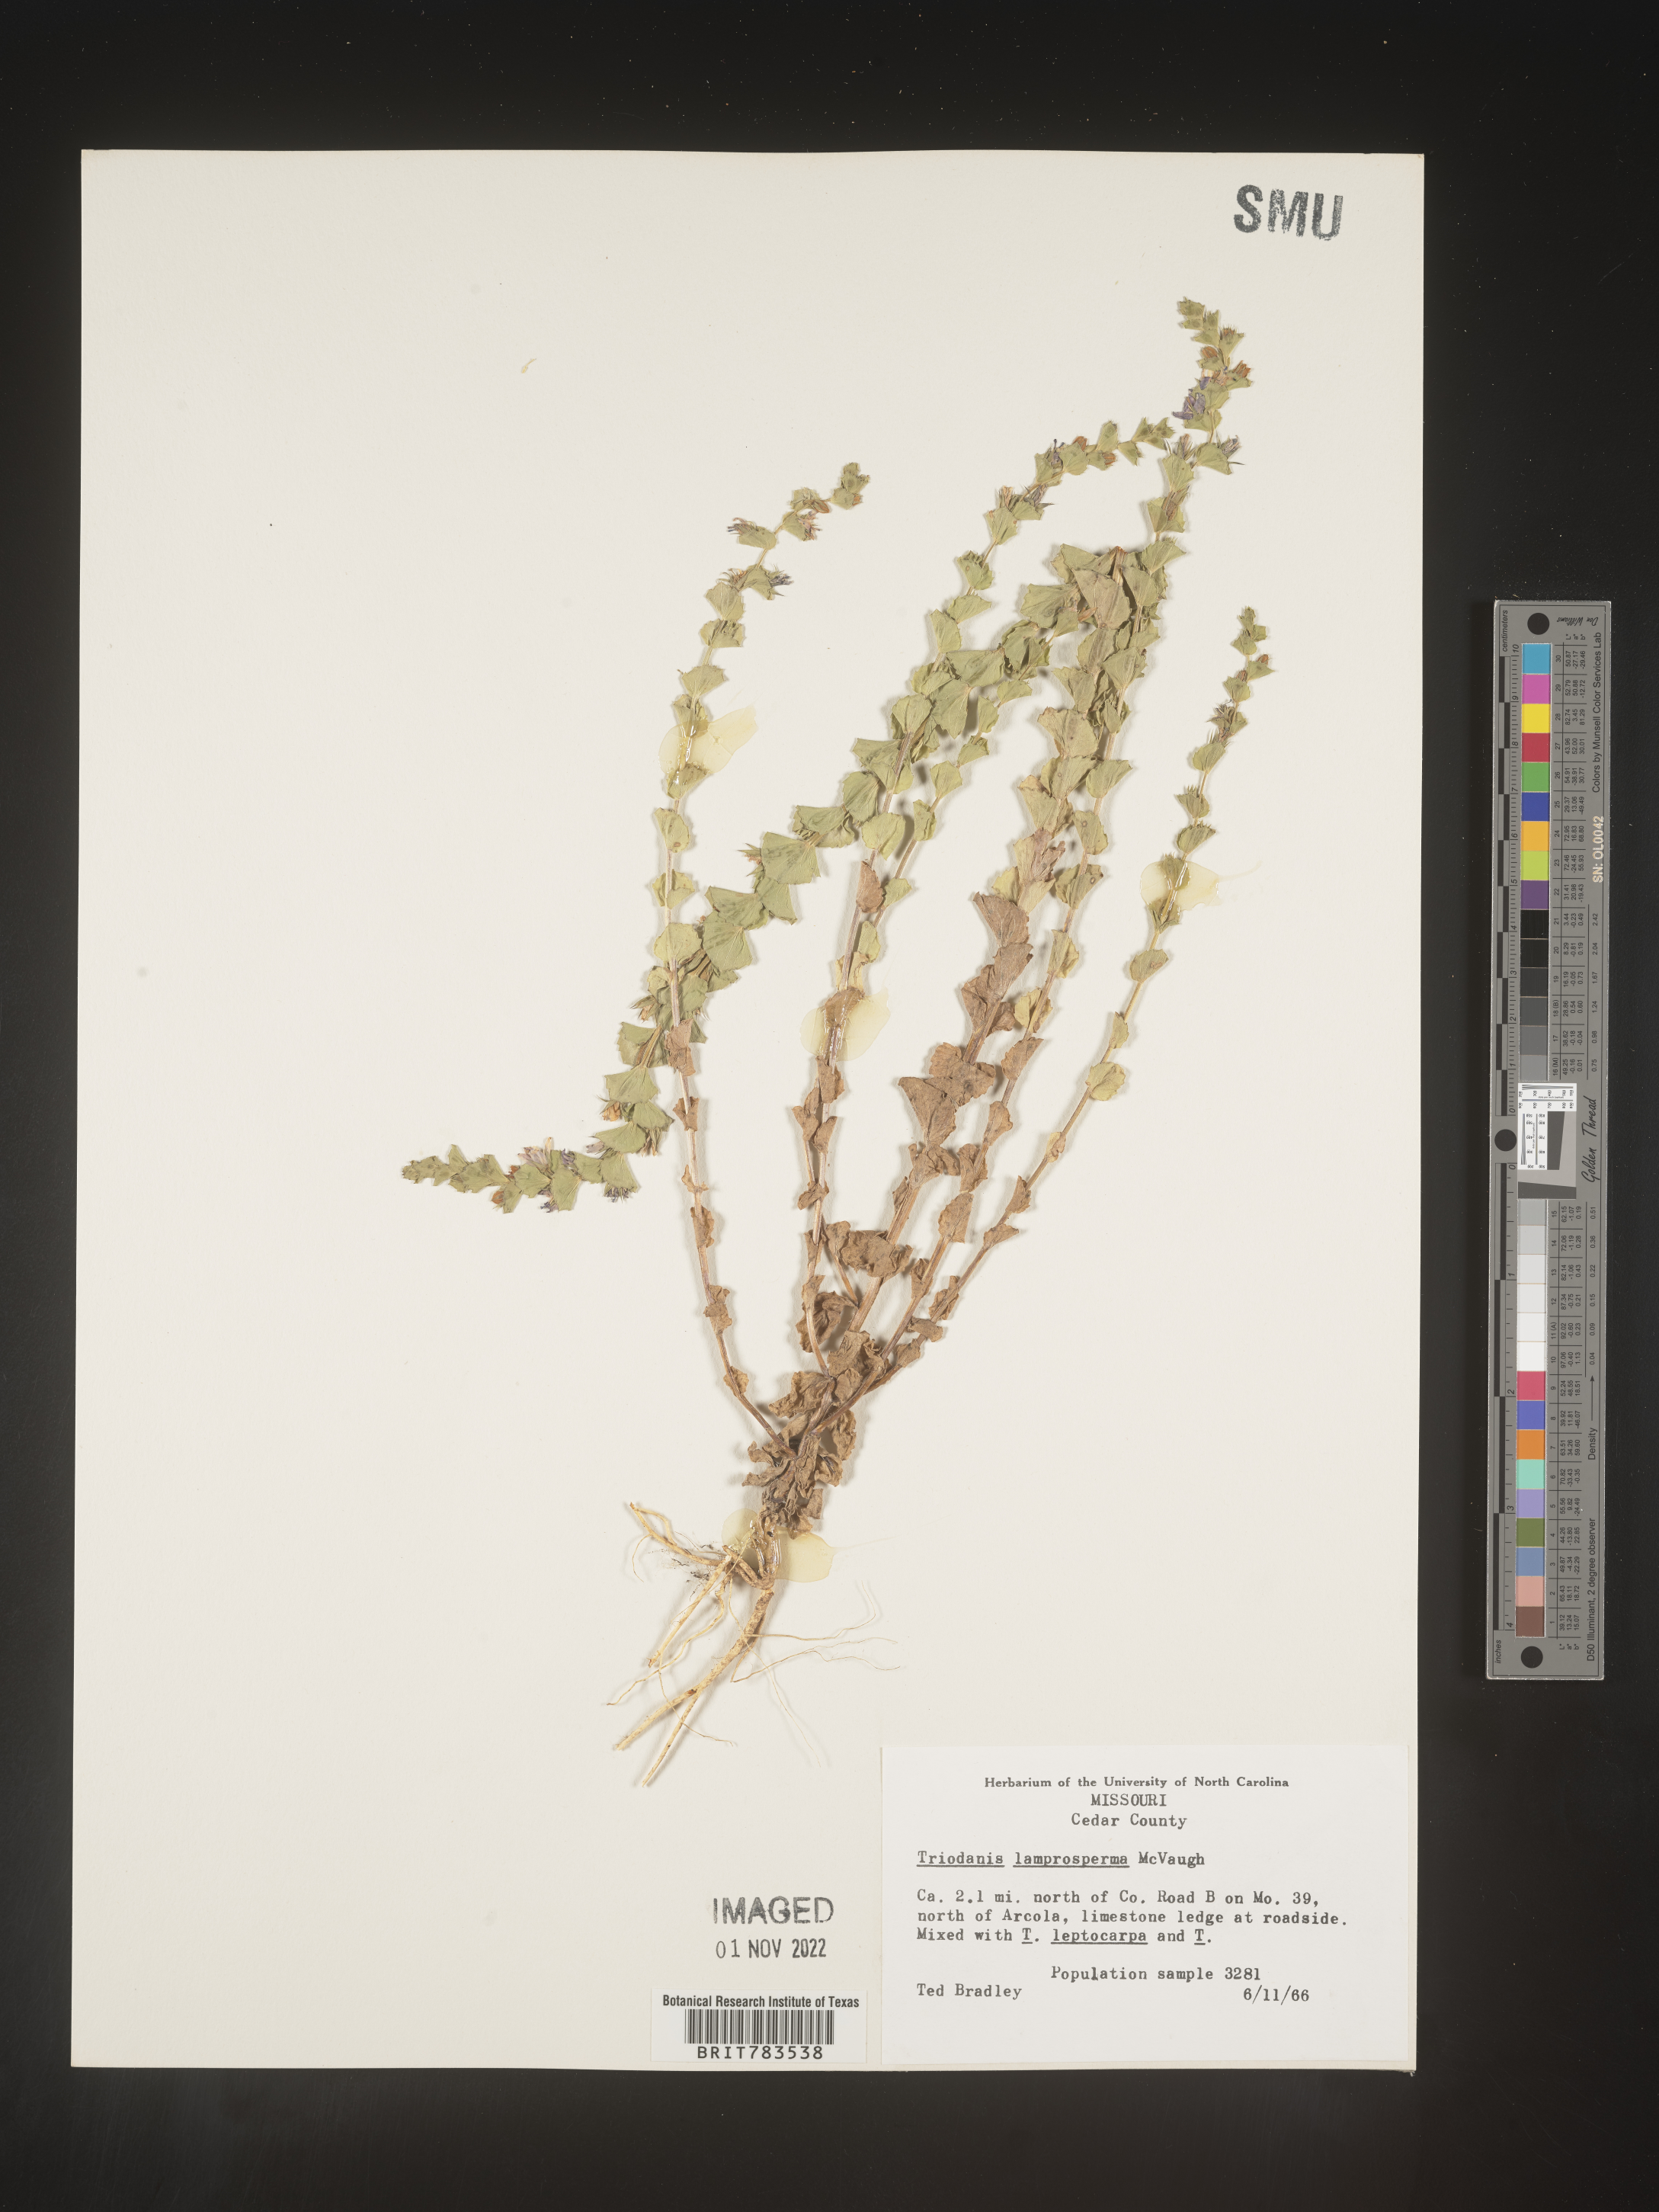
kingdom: Plantae
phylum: Tracheophyta
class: Magnoliopsida
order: Asterales
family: Campanulaceae
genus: Triodanis
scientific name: Triodanis lamprosperma
